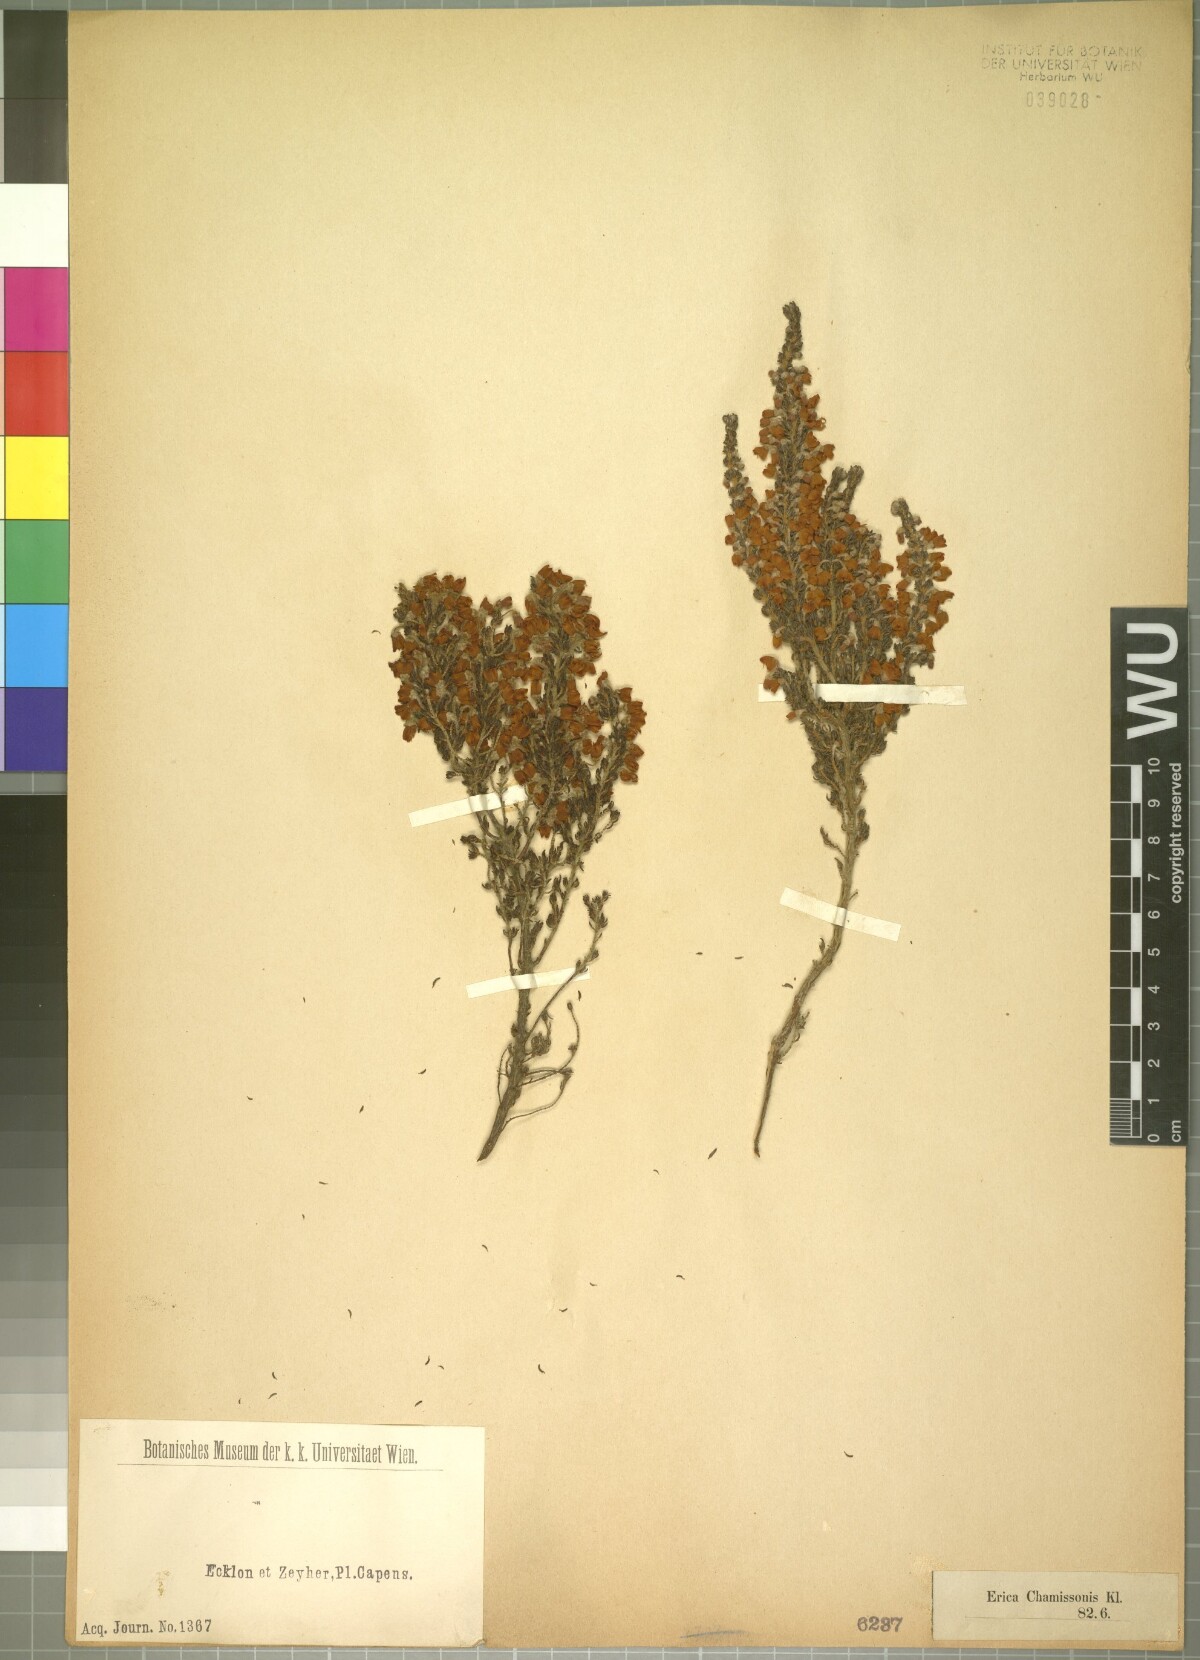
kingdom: Plantae
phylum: Tracheophyta
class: Magnoliopsida
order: Ericales
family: Ericaceae
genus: Erica
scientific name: Erica chamissonis
